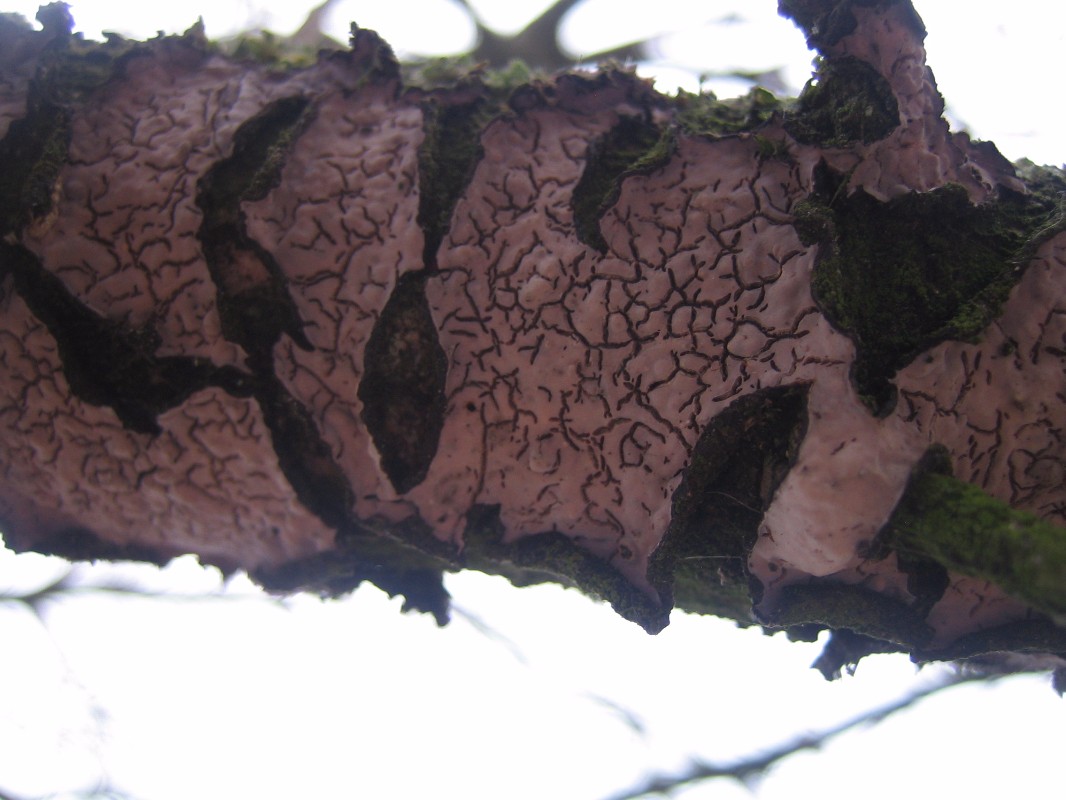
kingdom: Fungi
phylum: Basidiomycota
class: Agaricomycetes
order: Russulales
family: Peniophoraceae
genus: Peniophora
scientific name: Peniophora quercina
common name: ege-voksskind
